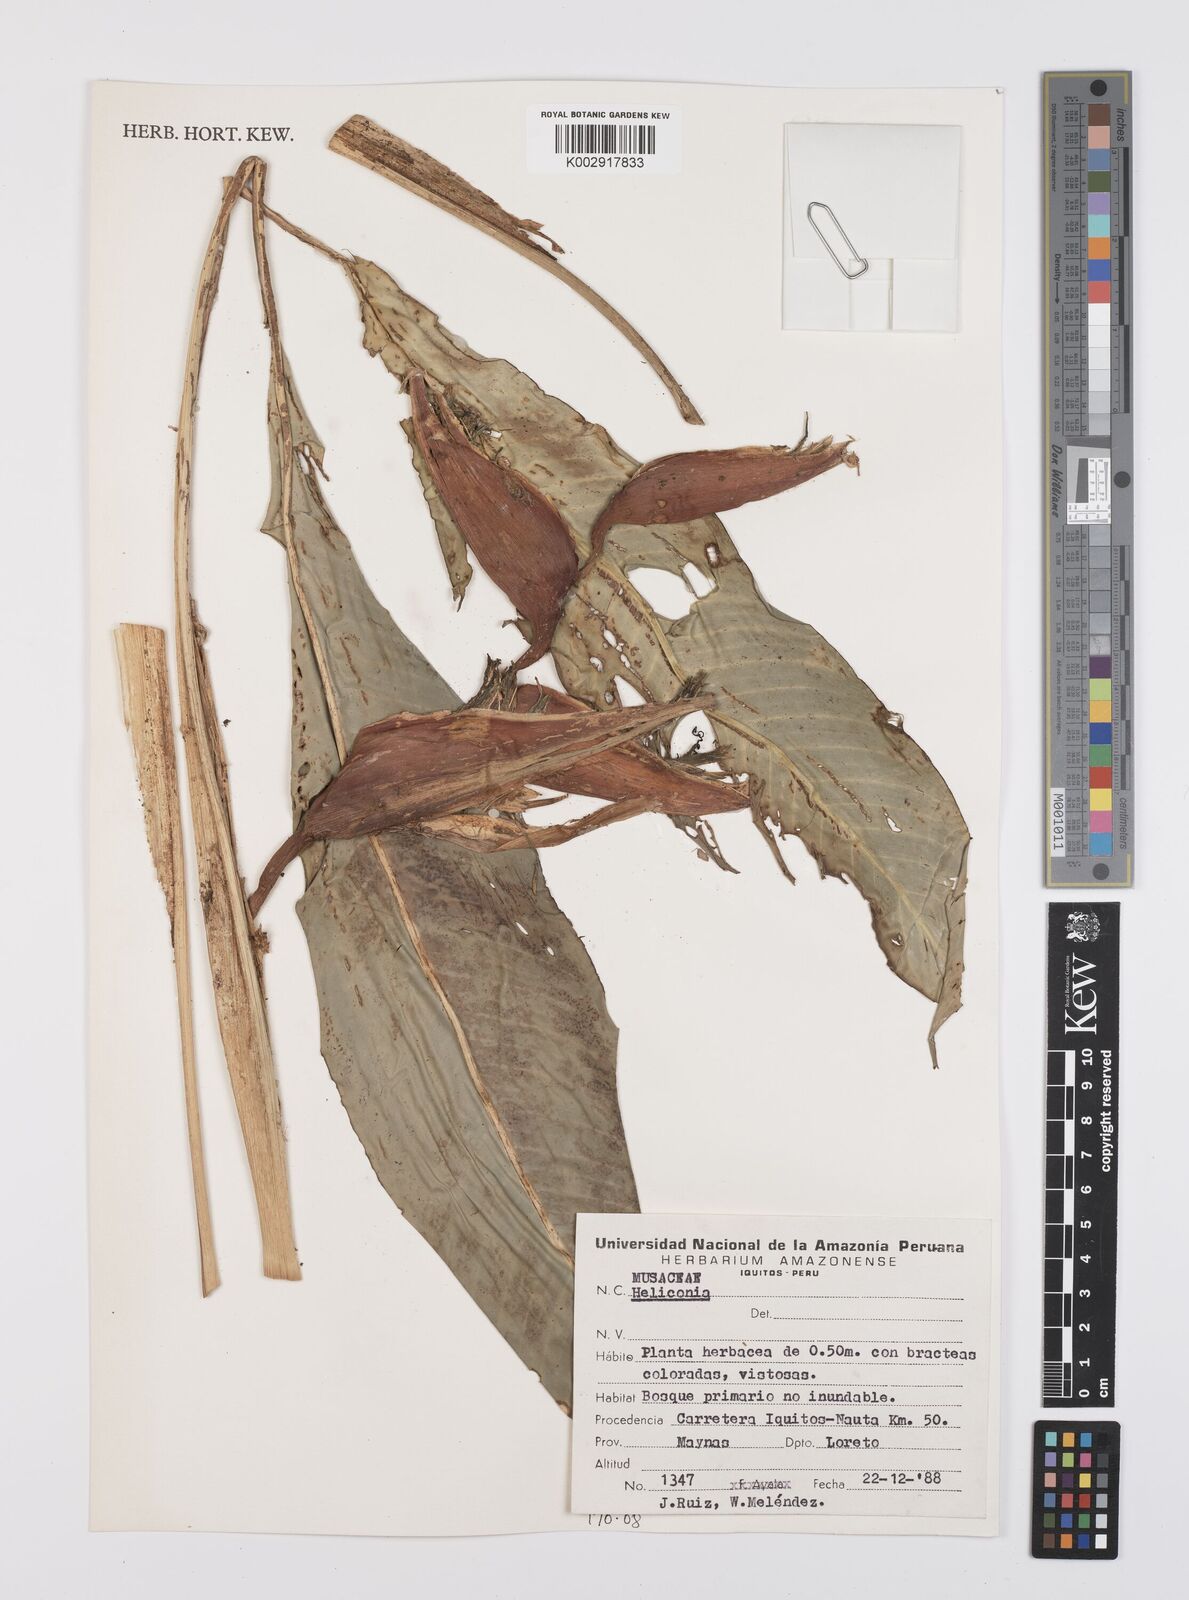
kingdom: Plantae
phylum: Tracheophyta
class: Liliopsida
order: Zingiberales
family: Heliconiaceae
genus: Heliconia
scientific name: Heliconia
